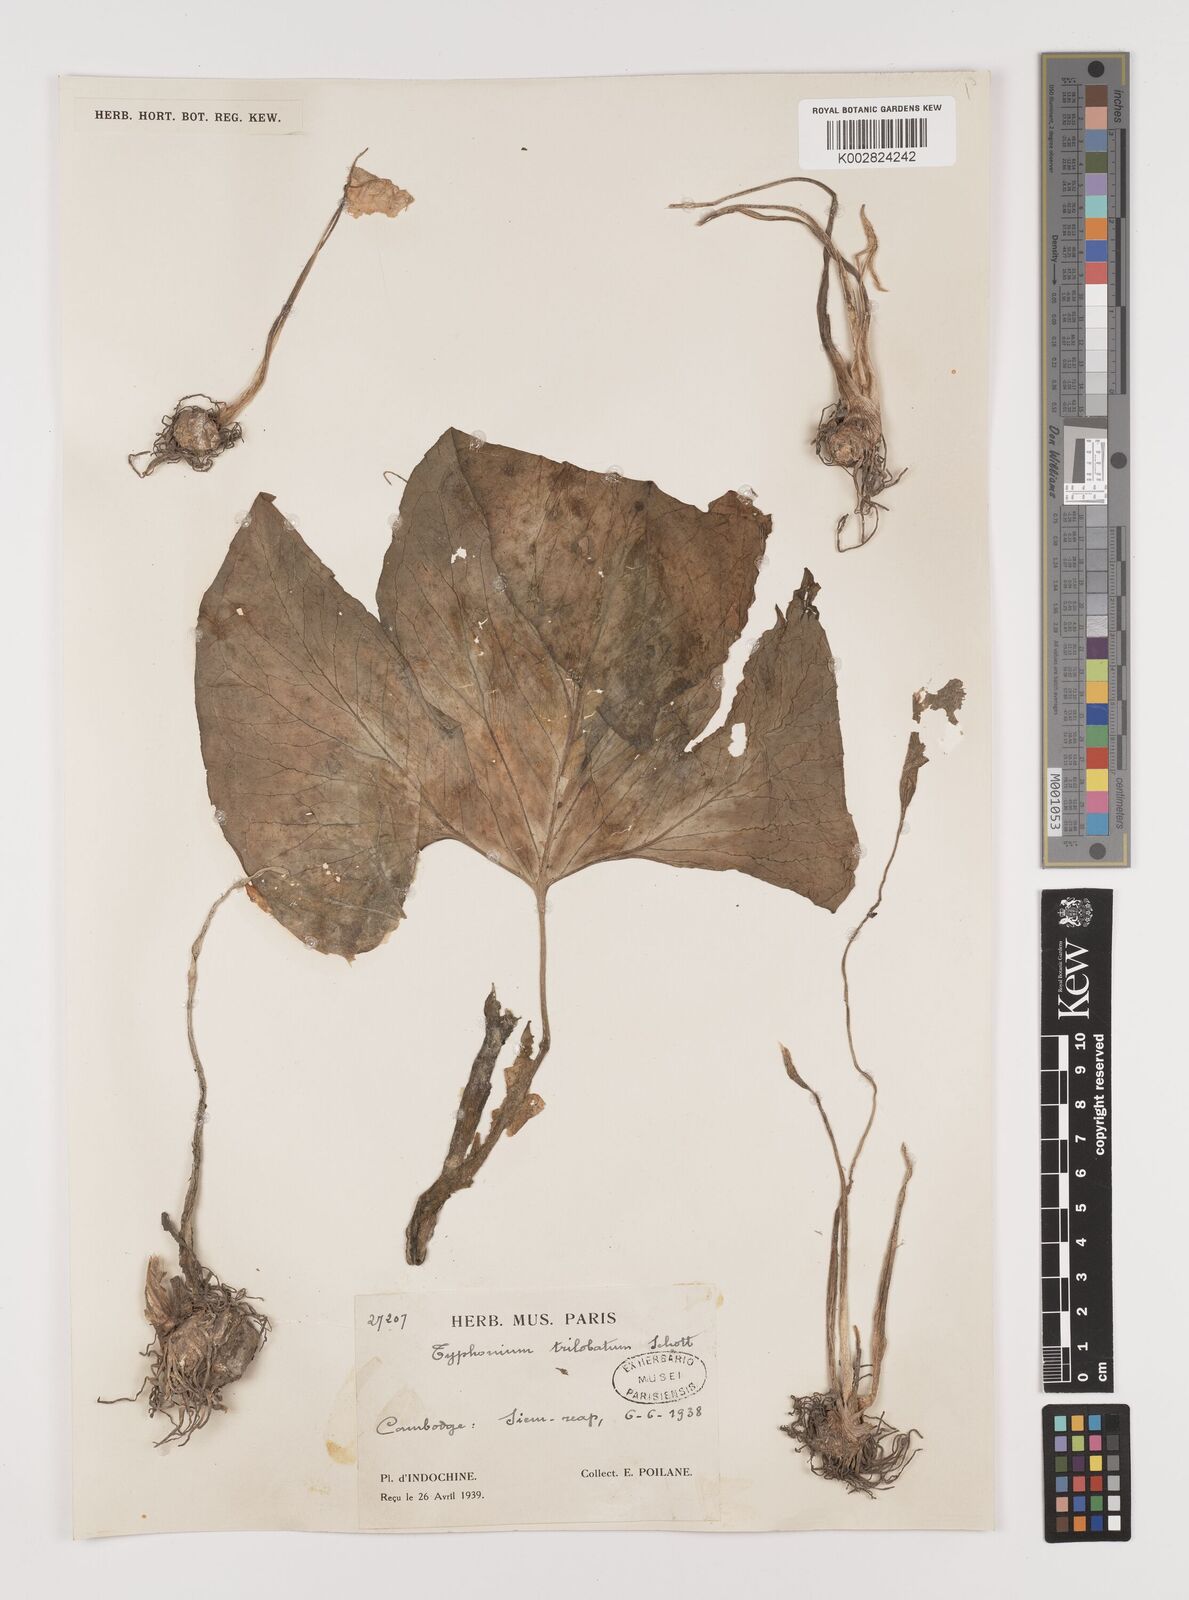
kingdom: Plantae
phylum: Tracheophyta
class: Liliopsida
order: Alismatales
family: Araceae
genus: Typhonium
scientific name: Typhonium trilobatum
